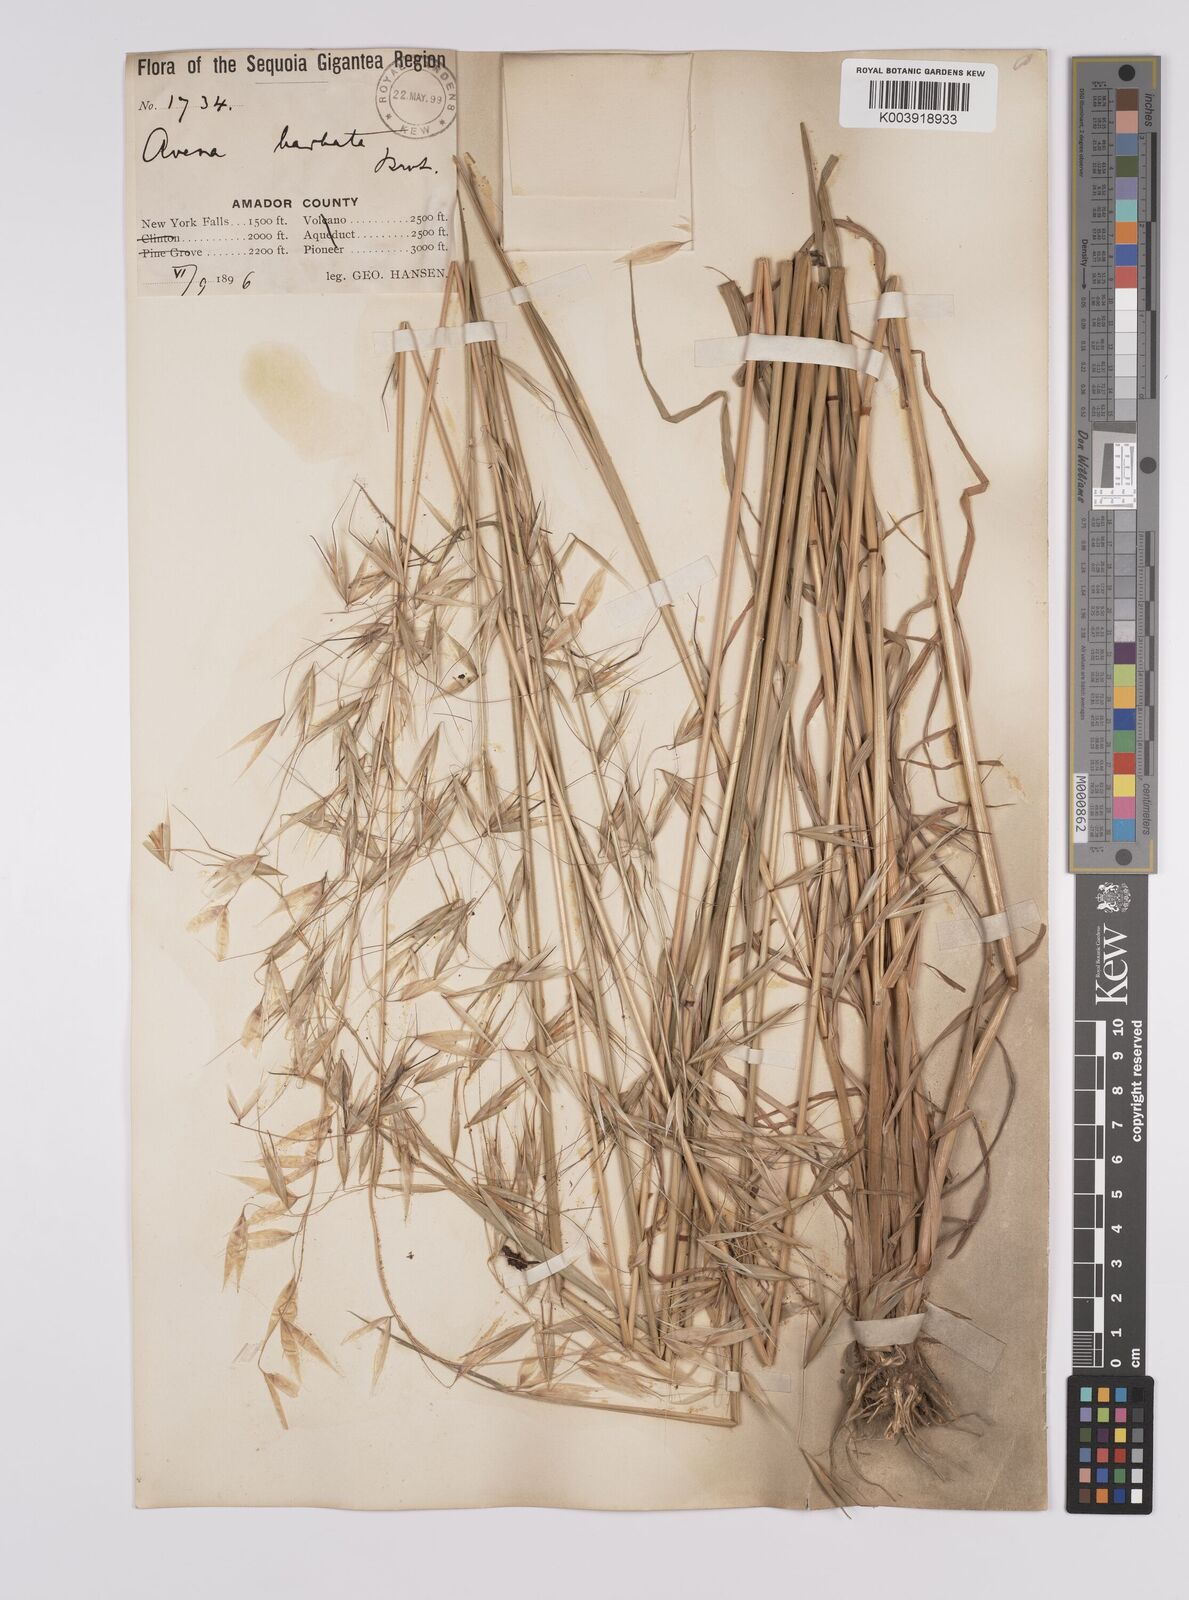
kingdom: Plantae
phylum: Tracheophyta
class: Liliopsida
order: Poales
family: Poaceae
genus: Avena
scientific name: Avena
